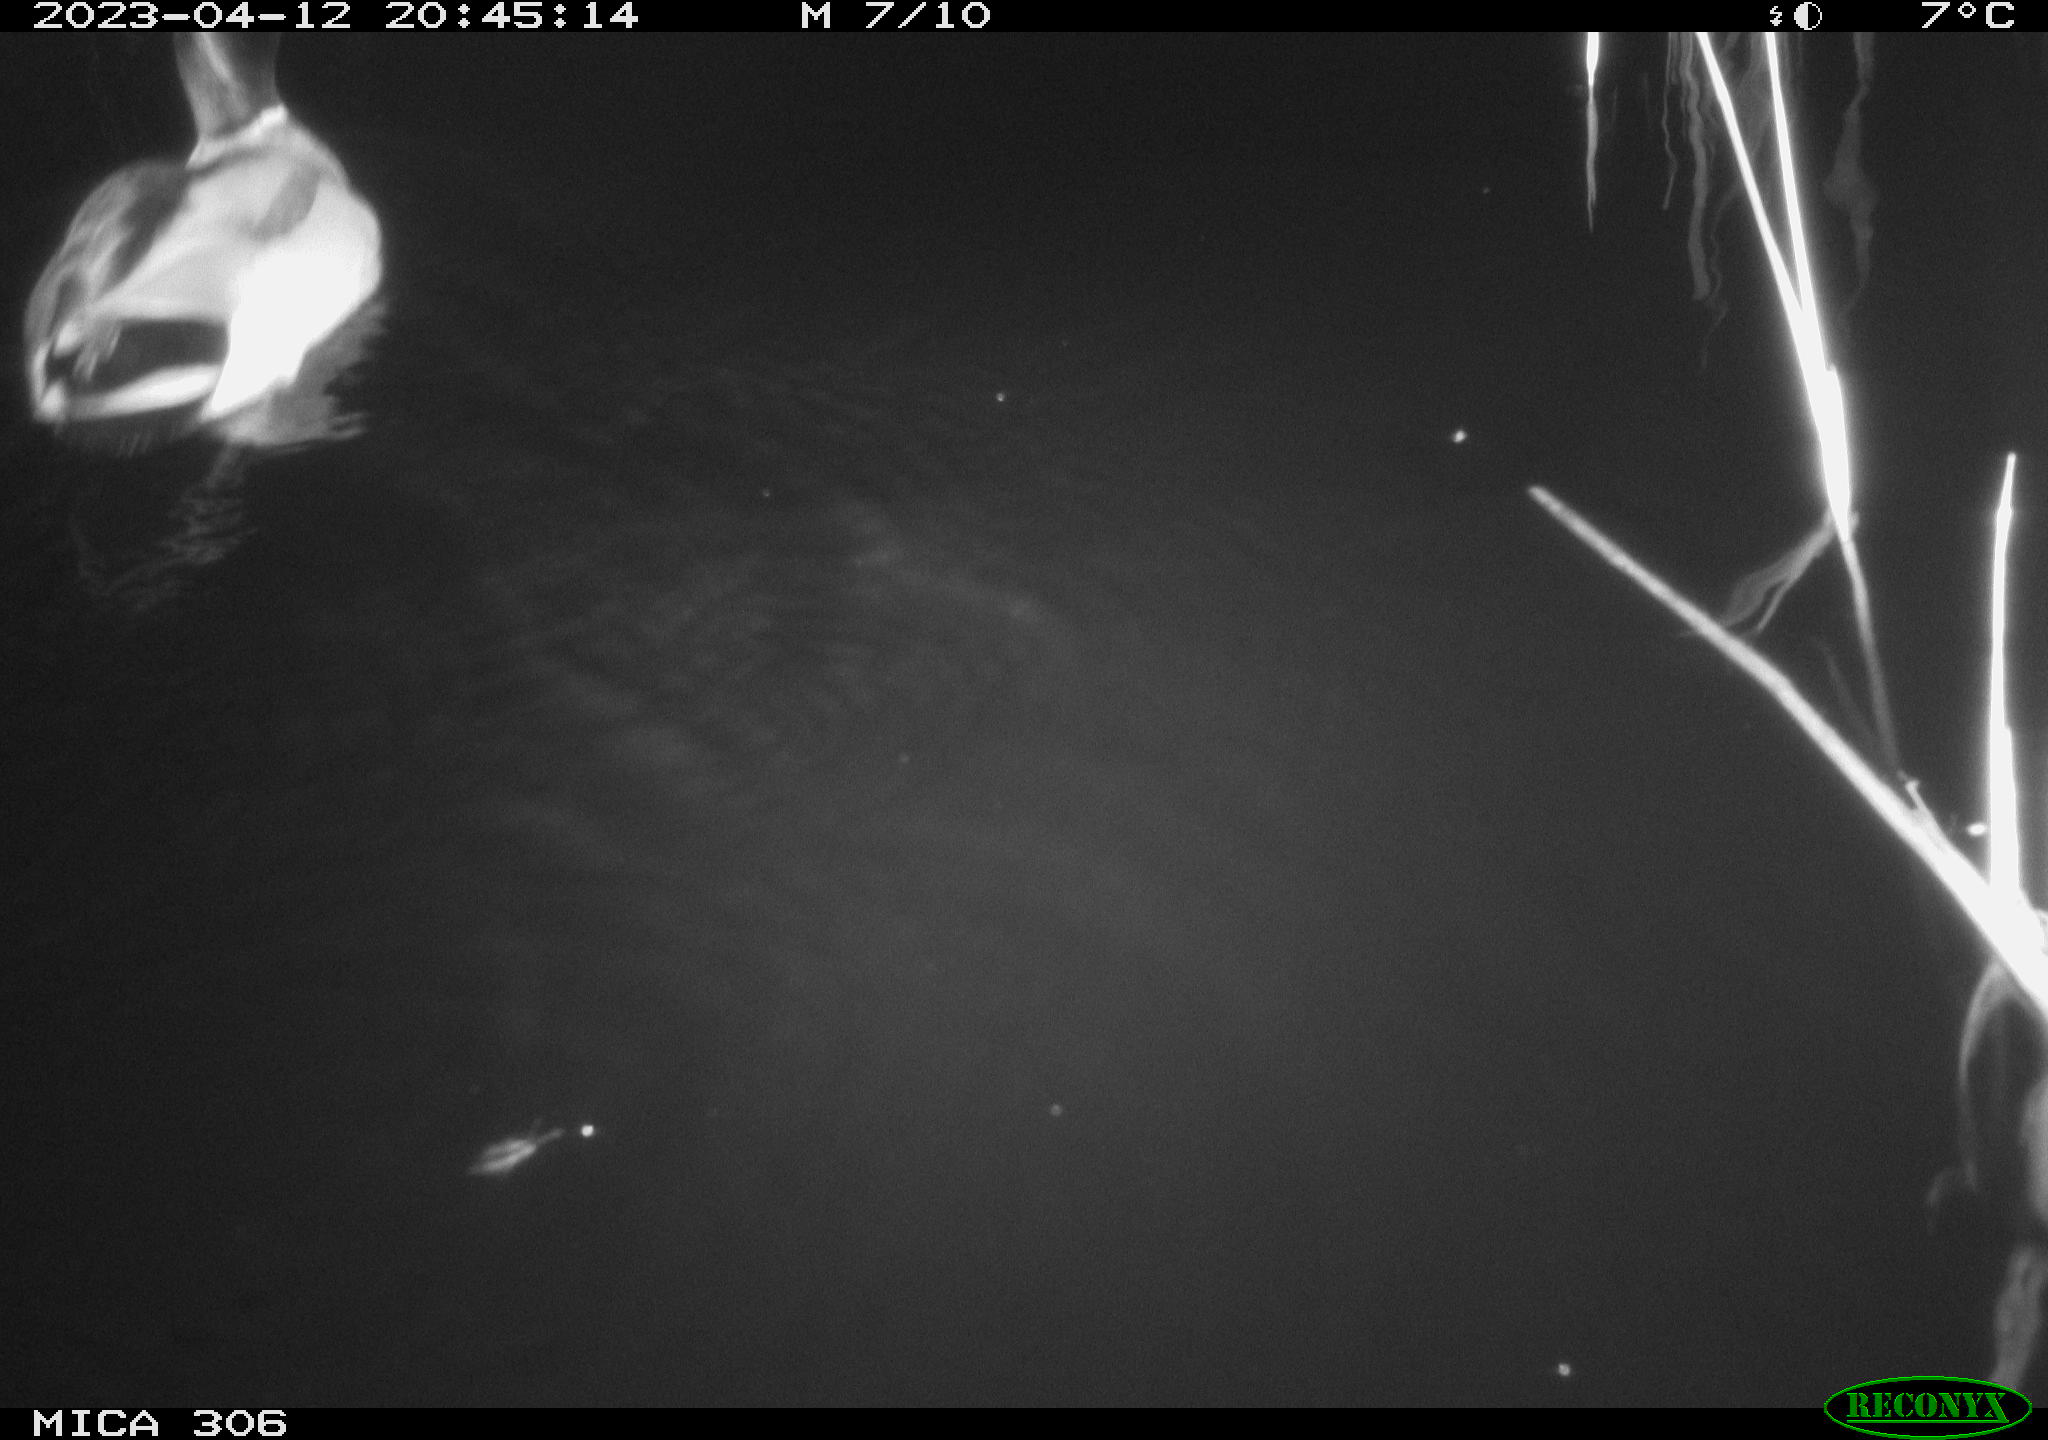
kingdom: Animalia
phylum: Chordata
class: Aves
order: Anseriformes
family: Anatidae
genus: Anas
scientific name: Anas
